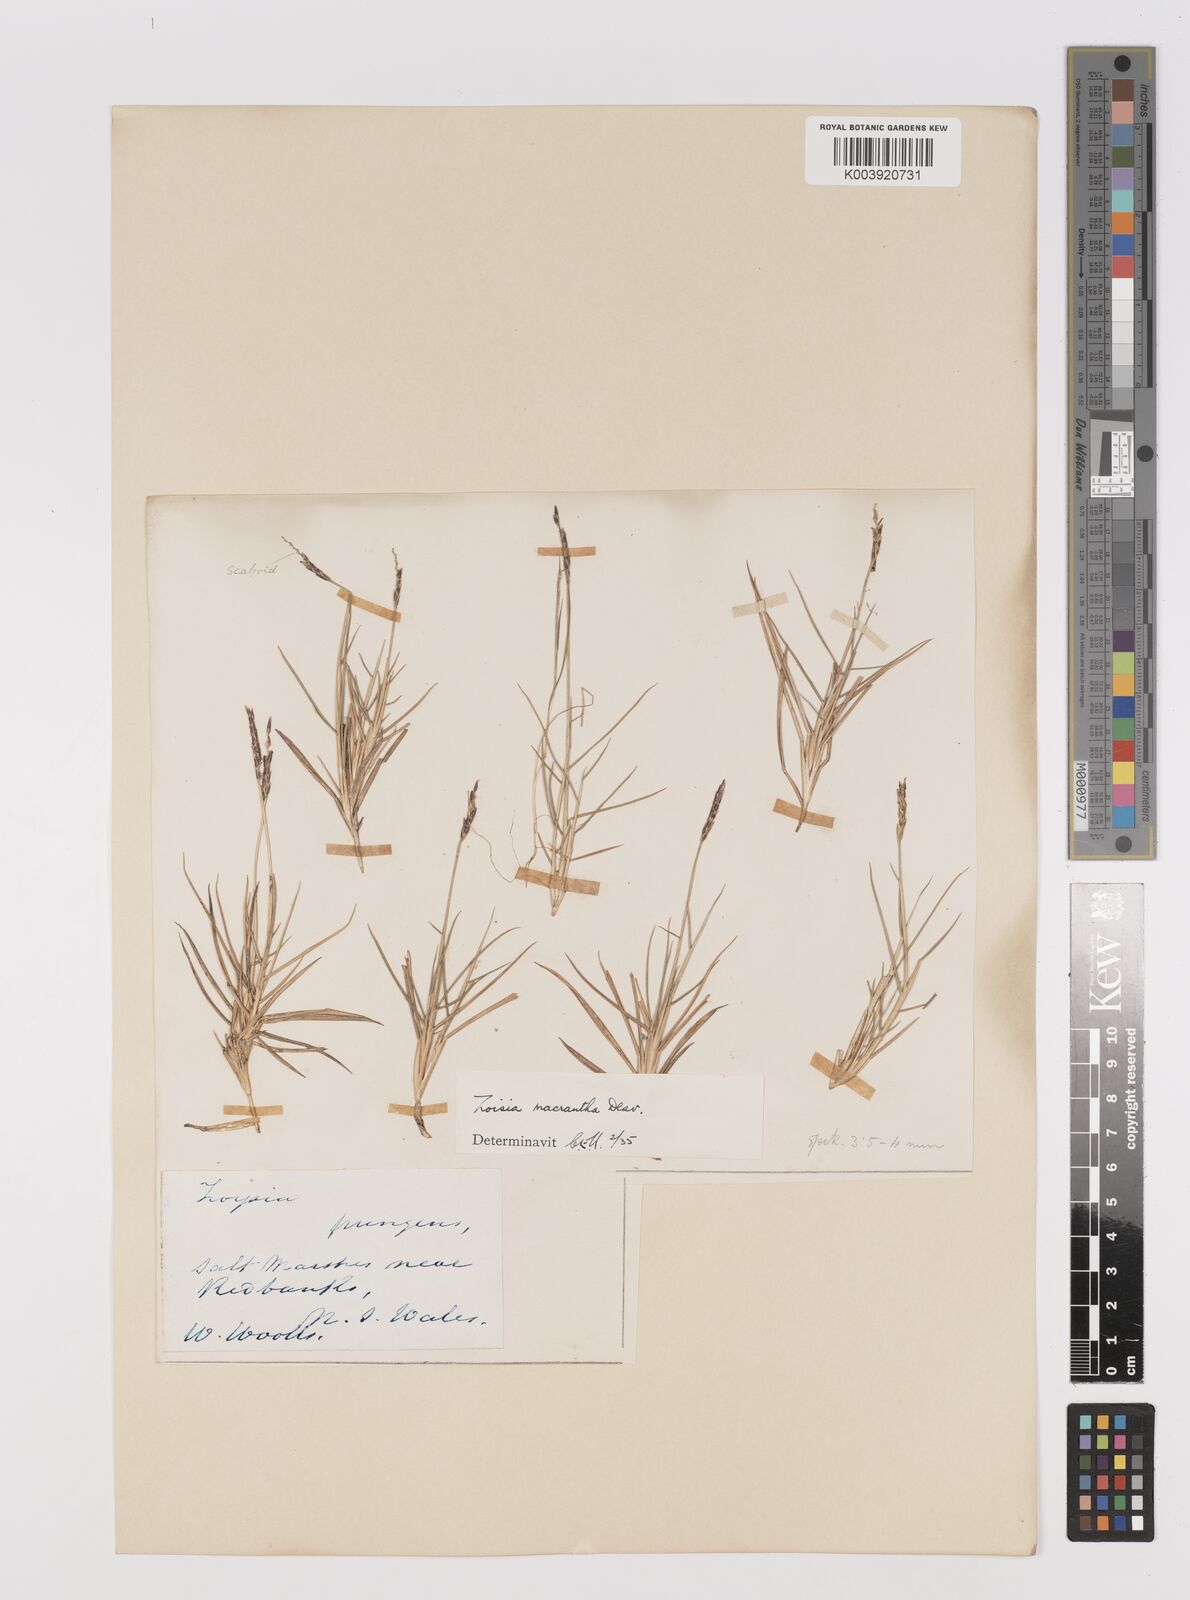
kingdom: Plantae
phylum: Tracheophyta
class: Liliopsida
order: Poales
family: Poaceae
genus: Zoysia
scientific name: Zoysia macrantha
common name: Korean lawn grass
